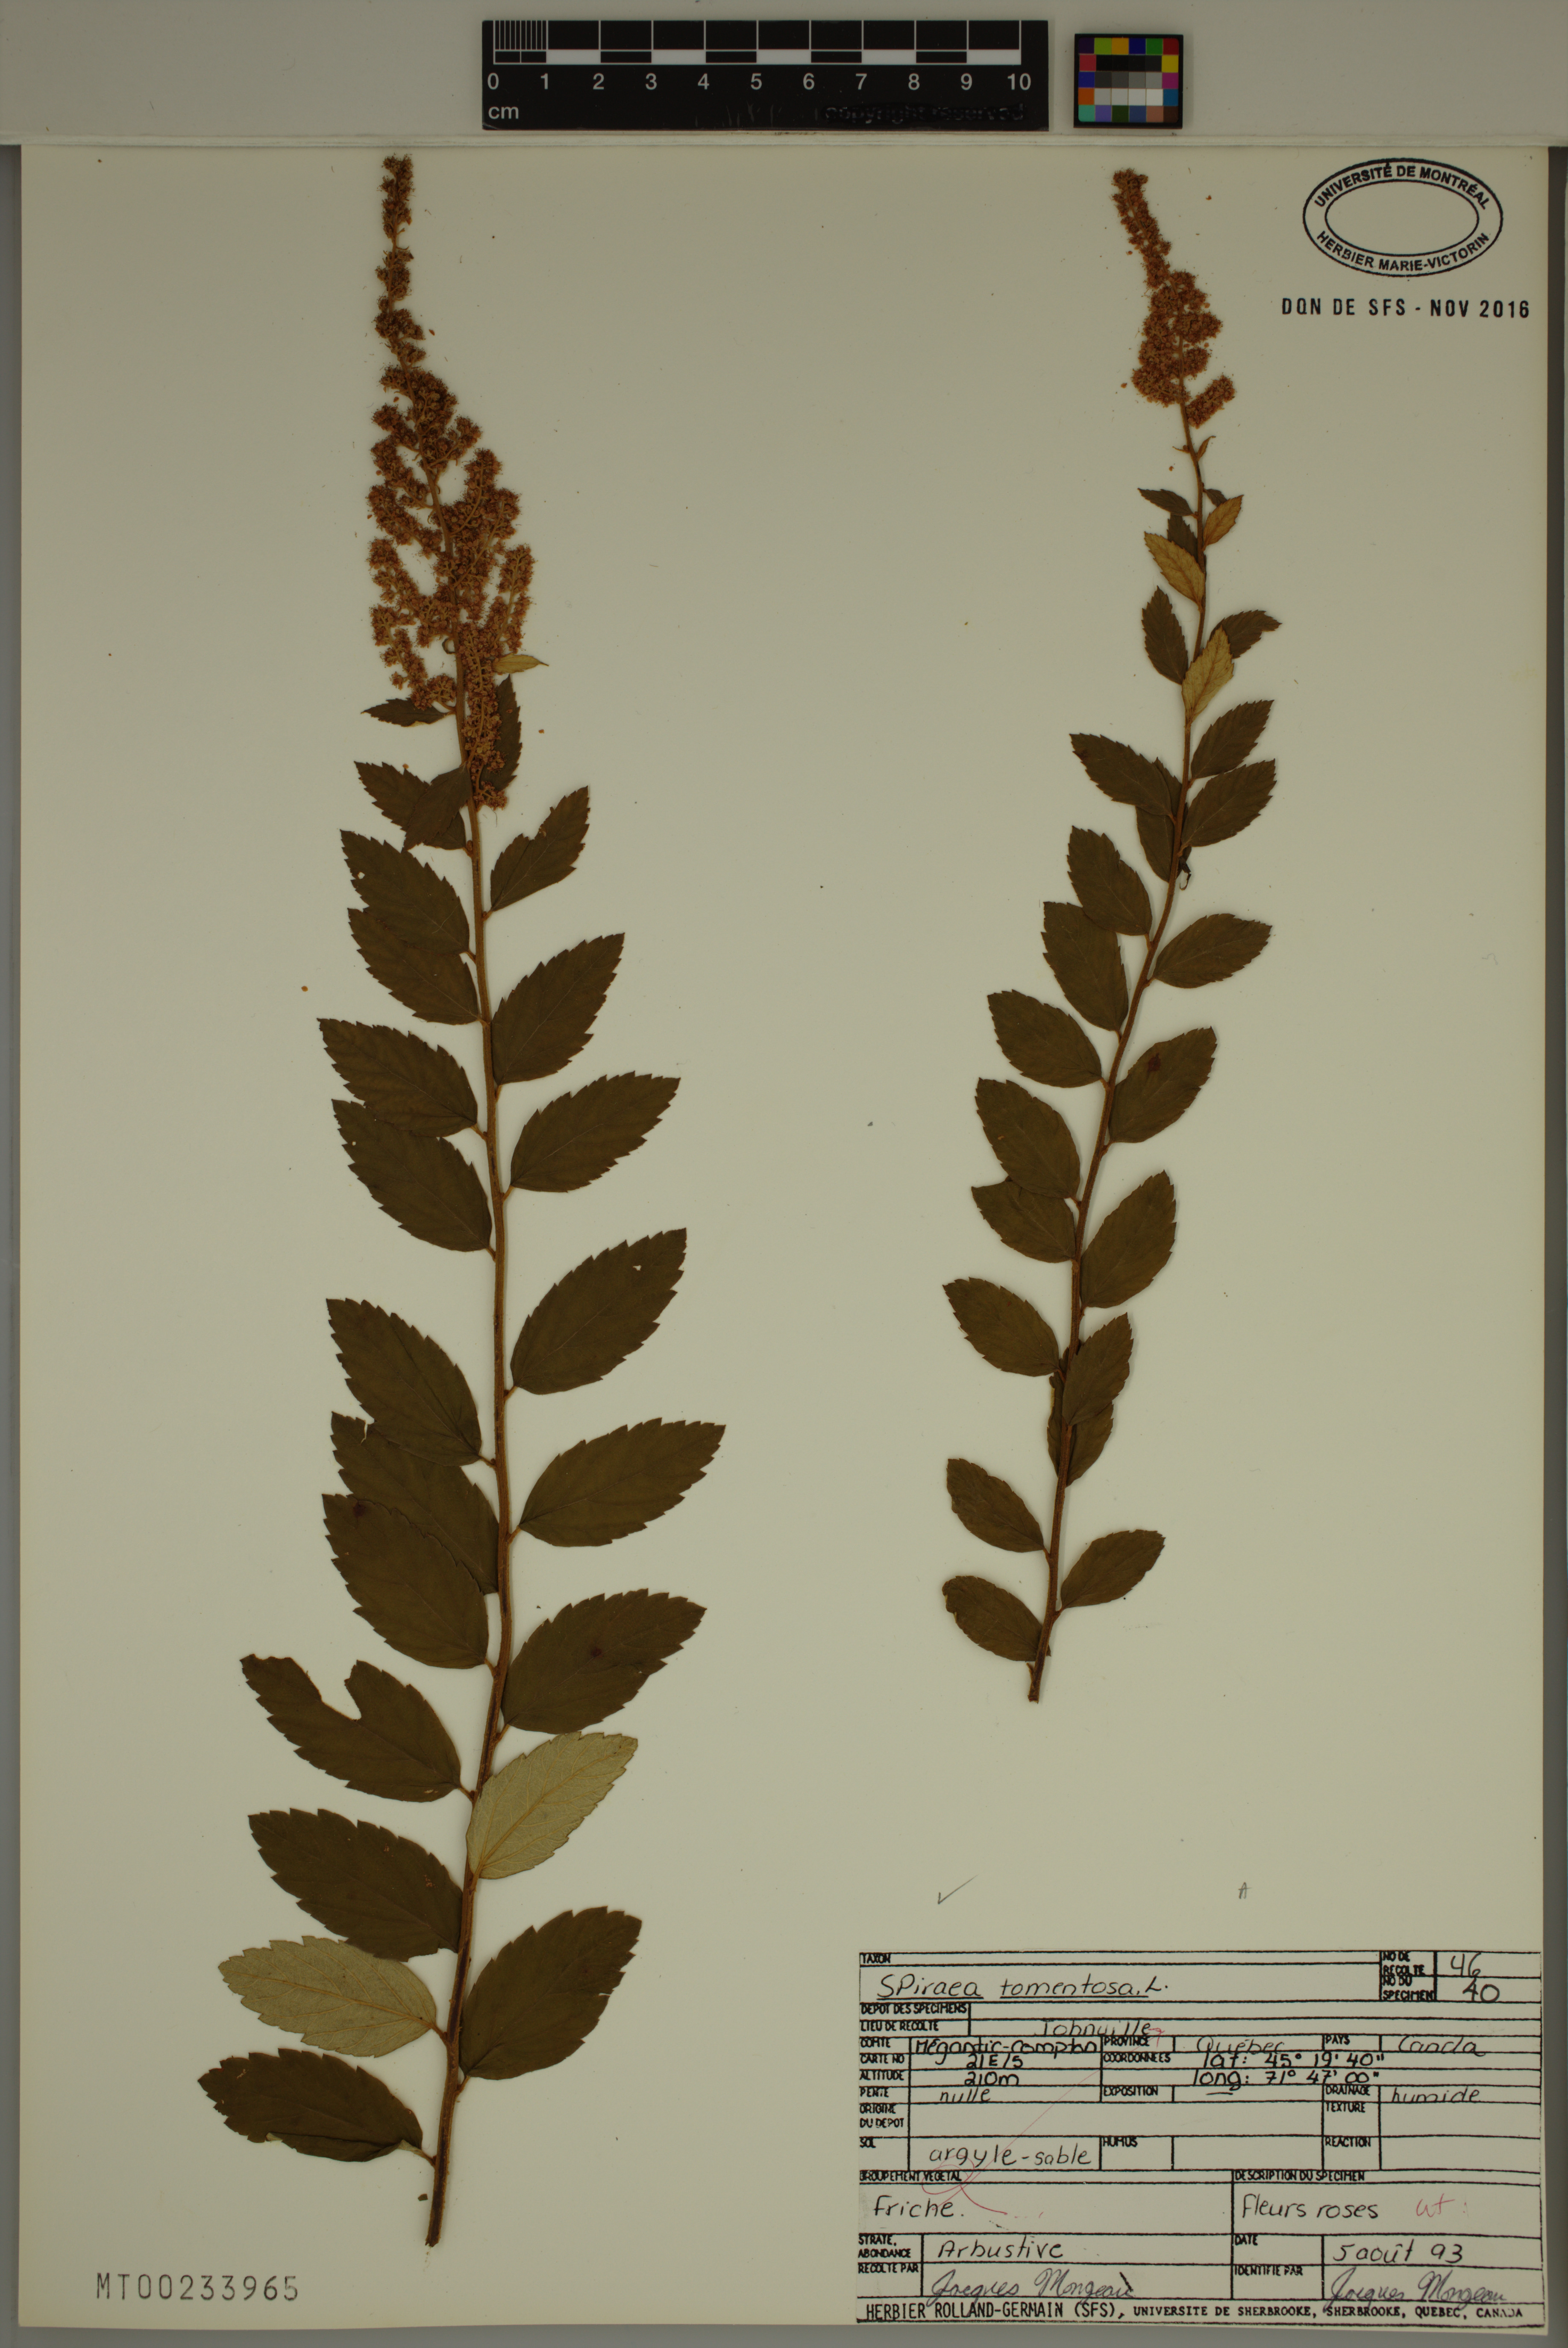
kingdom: Plantae
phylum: Tracheophyta
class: Magnoliopsida
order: Rosales
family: Rosaceae
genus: Spiraea
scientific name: Spiraea tomentosa
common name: Hardhack
